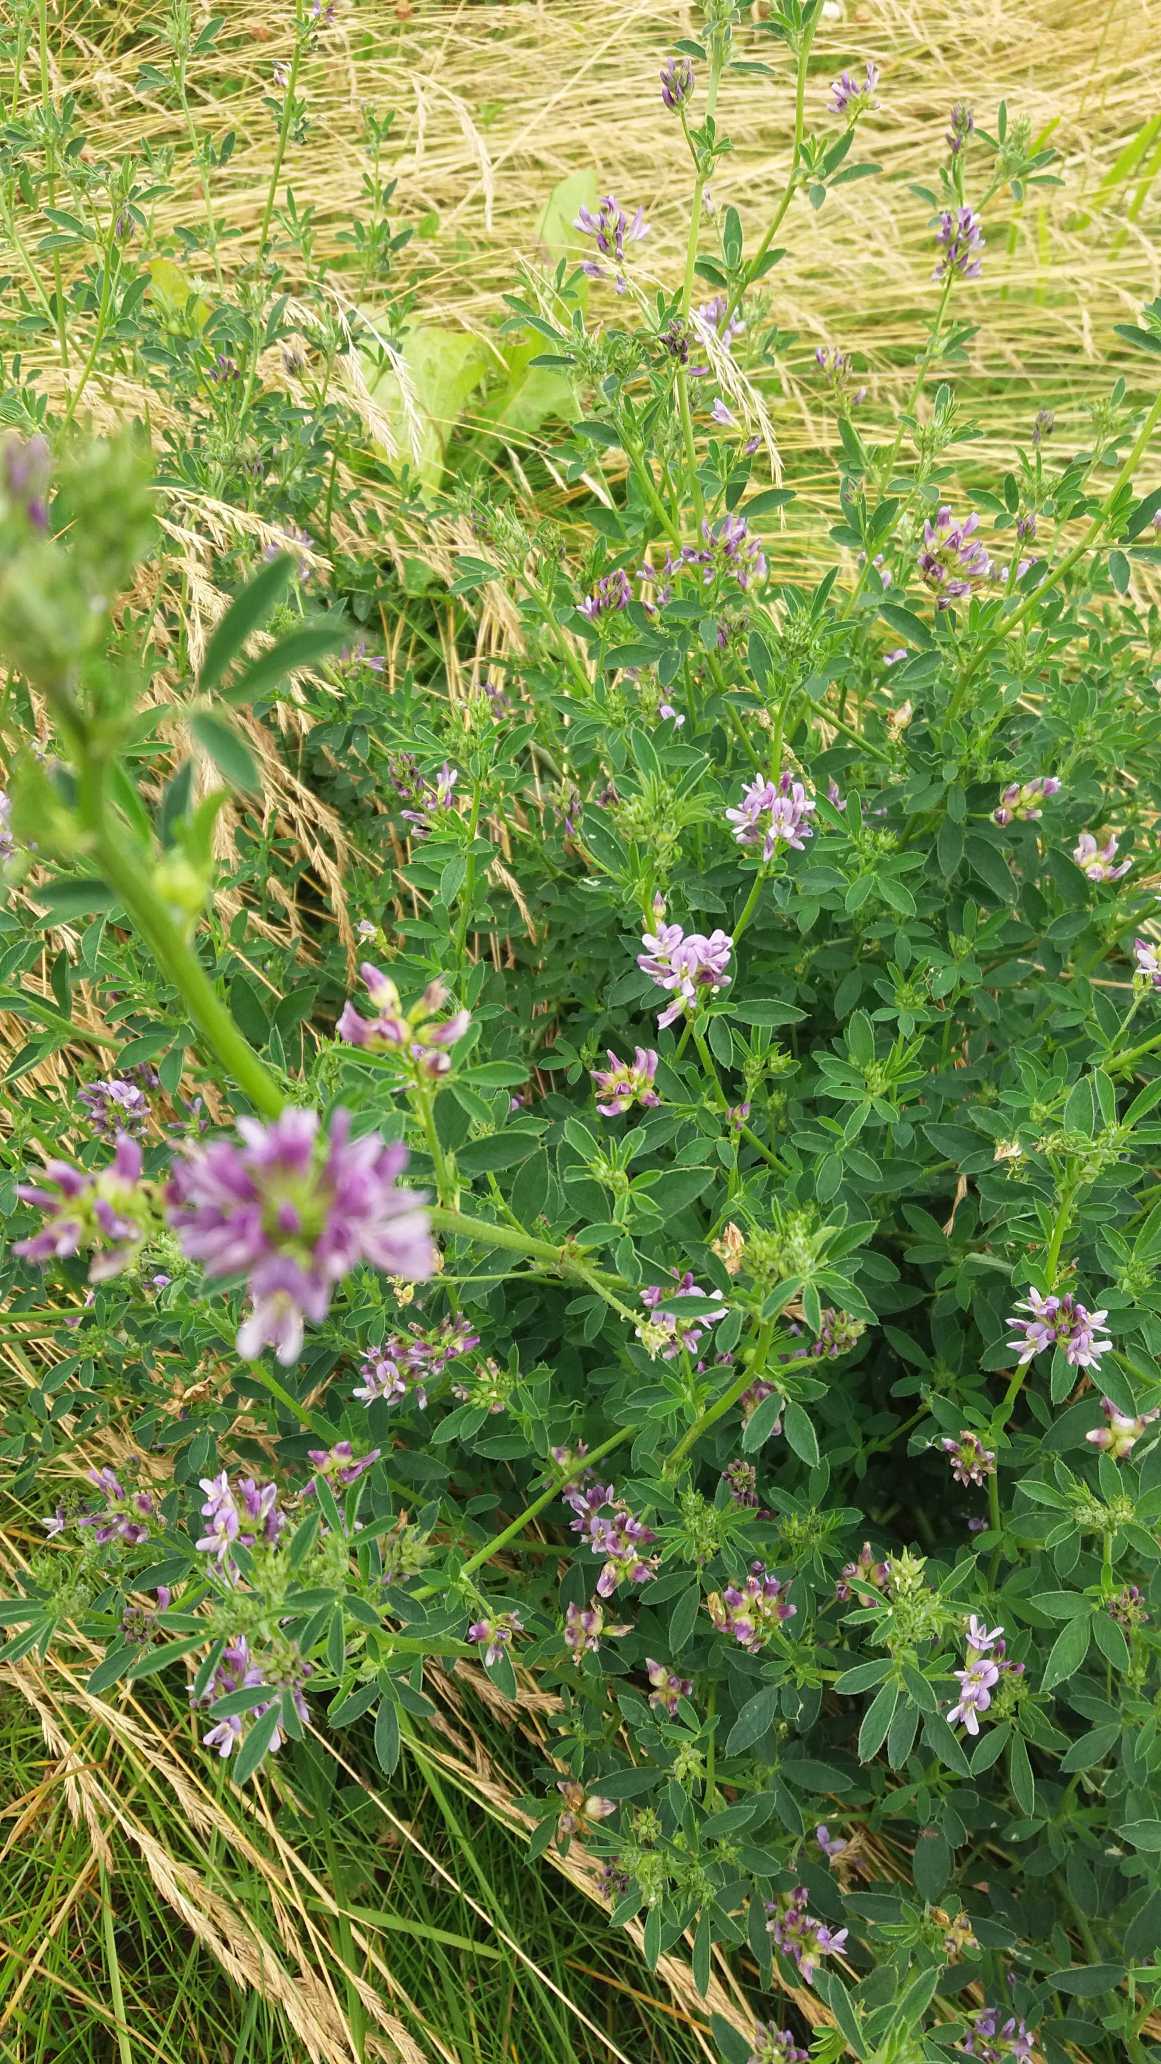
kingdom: Plantae
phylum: Tracheophyta
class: Magnoliopsida
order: Fabales
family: Fabaceae
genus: Medicago
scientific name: Medicago sativa
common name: Lucerne
